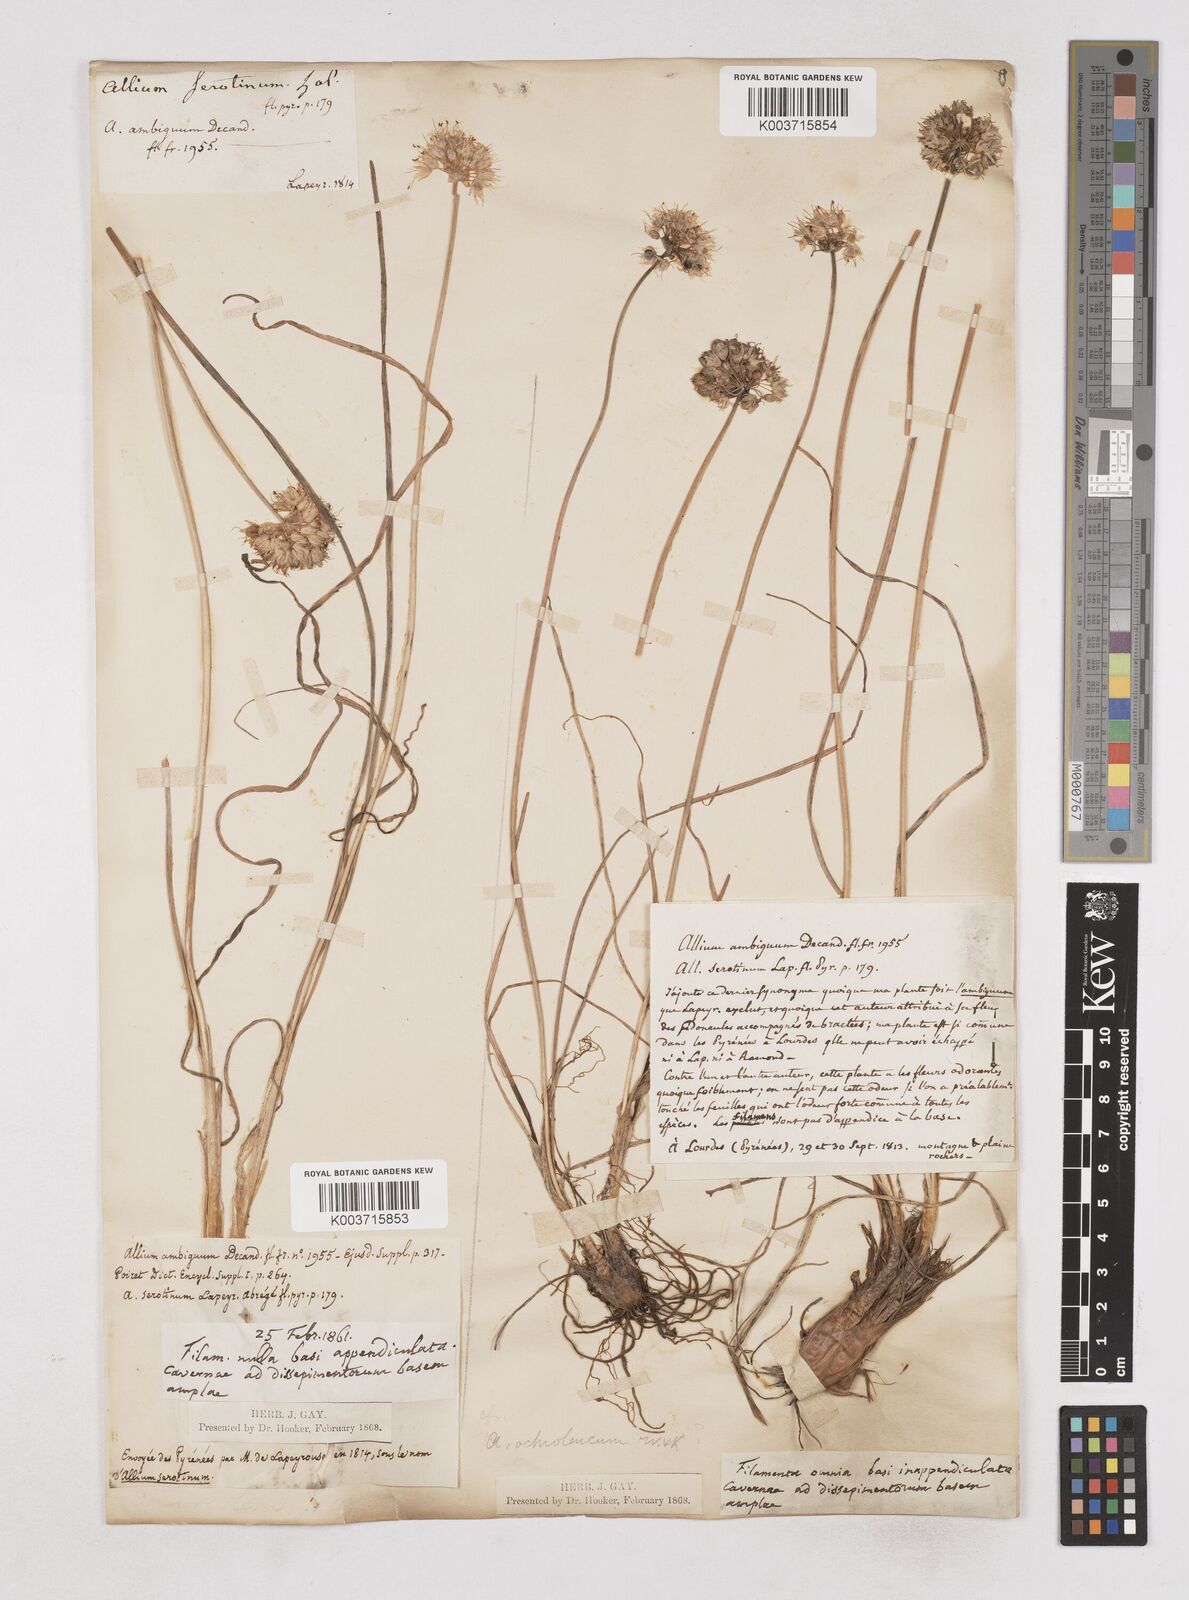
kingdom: Plantae
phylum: Tracheophyta
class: Liliopsida
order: Asparagales
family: Amaryllidaceae
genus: Allium
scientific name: Allium ericetorum
